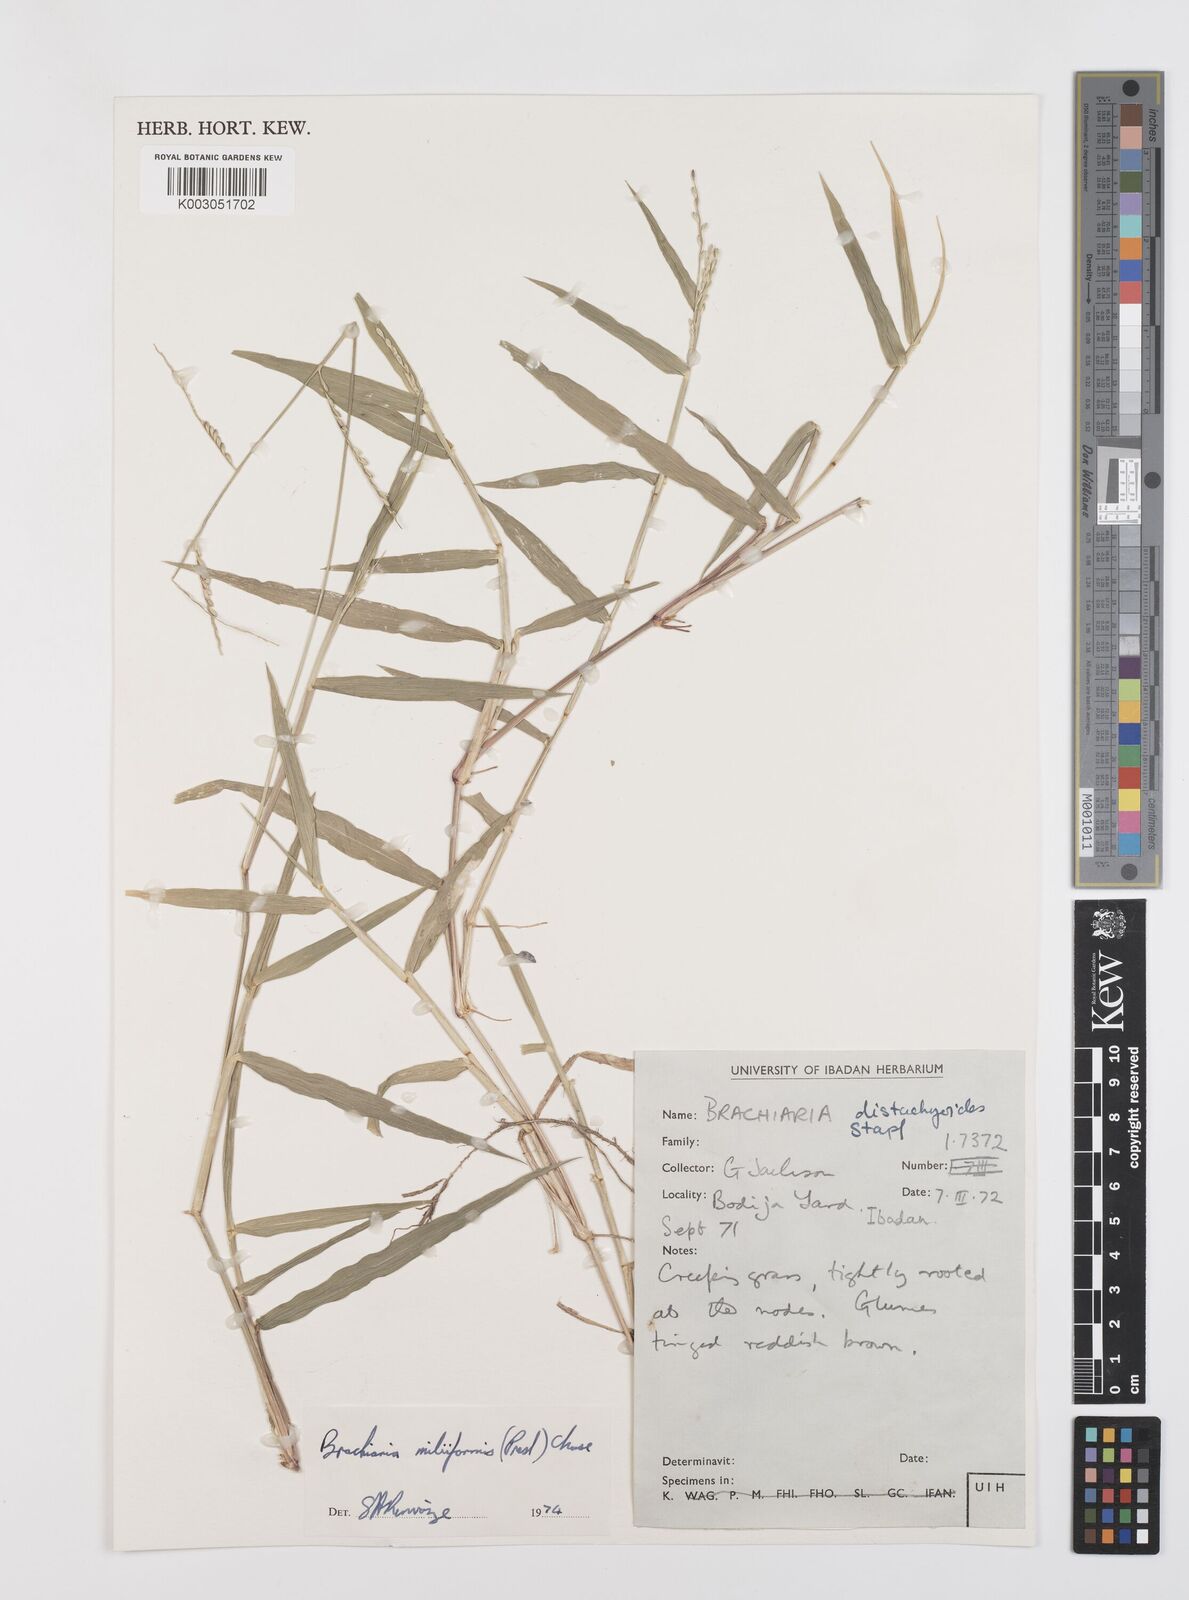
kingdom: Plantae
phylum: Tracheophyta
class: Liliopsida
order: Poales
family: Poaceae
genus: Urochloa
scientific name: Urochloa subquadripara
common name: Armgrass millet
